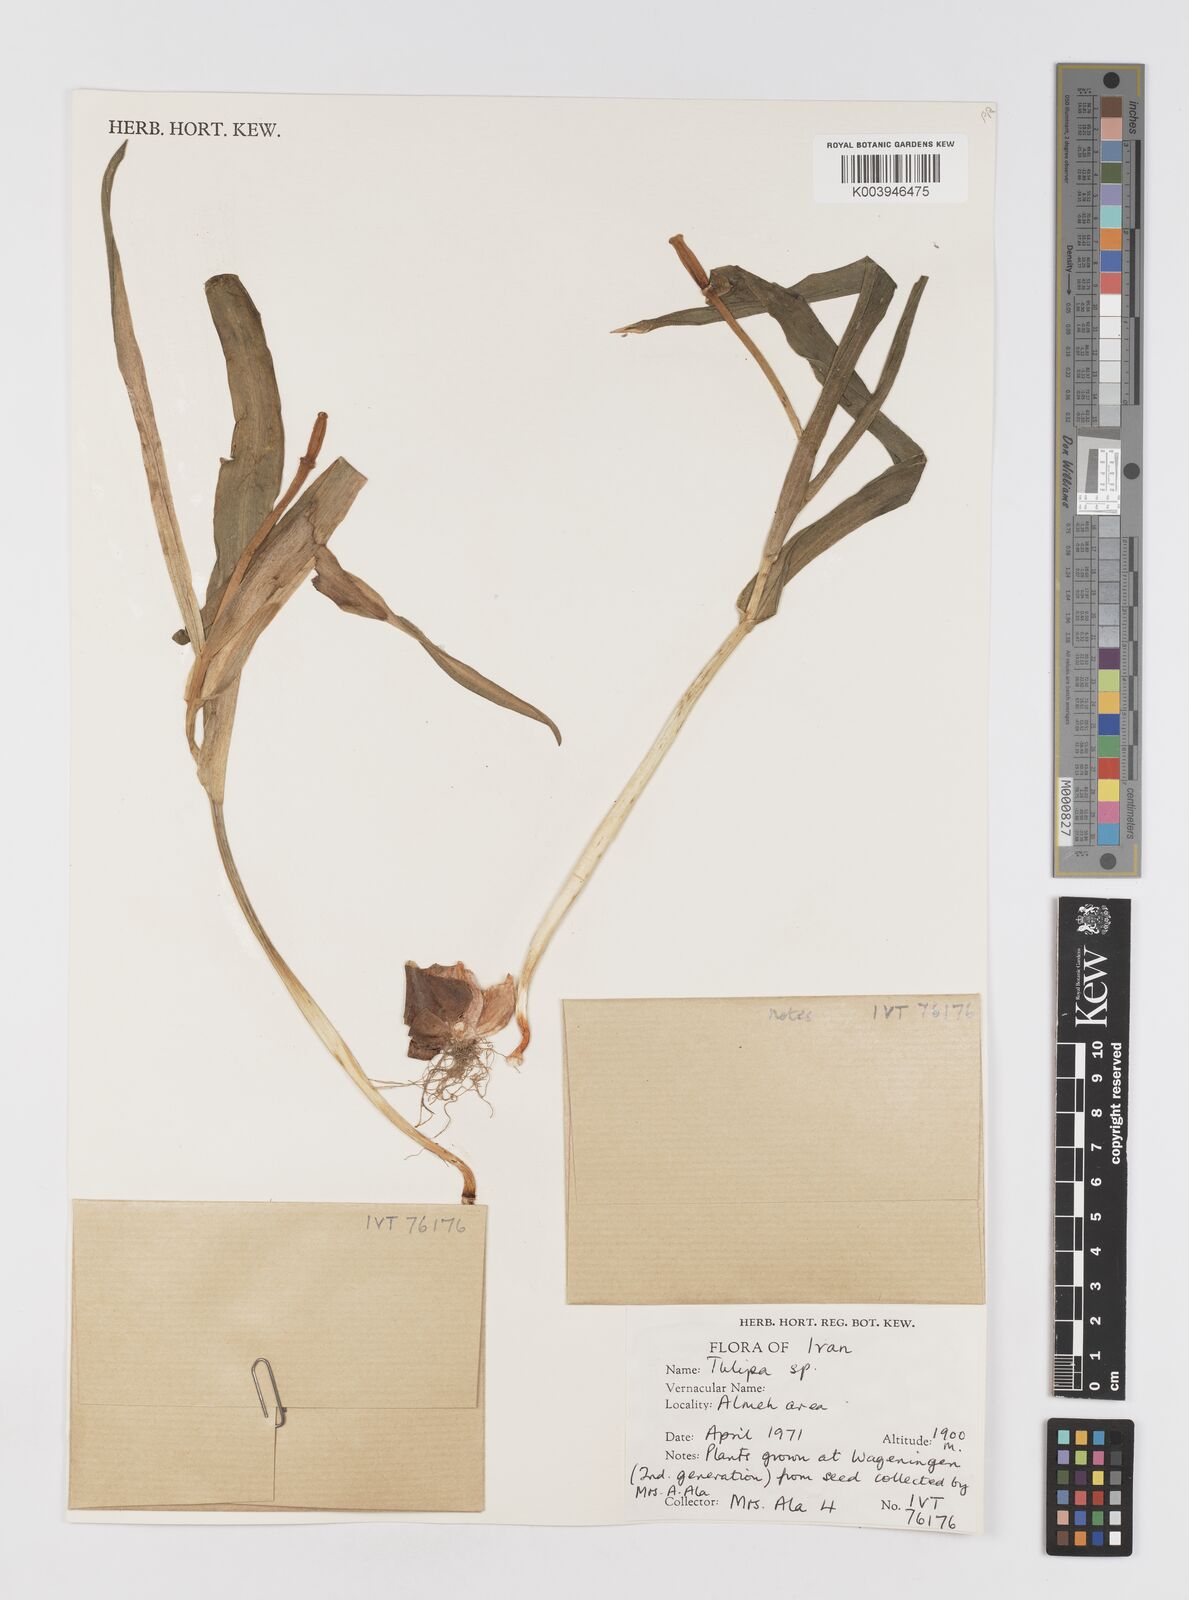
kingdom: Plantae
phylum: Tracheophyta
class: Liliopsida
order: Liliales
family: Liliaceae
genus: Tulipa
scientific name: Tulipa
